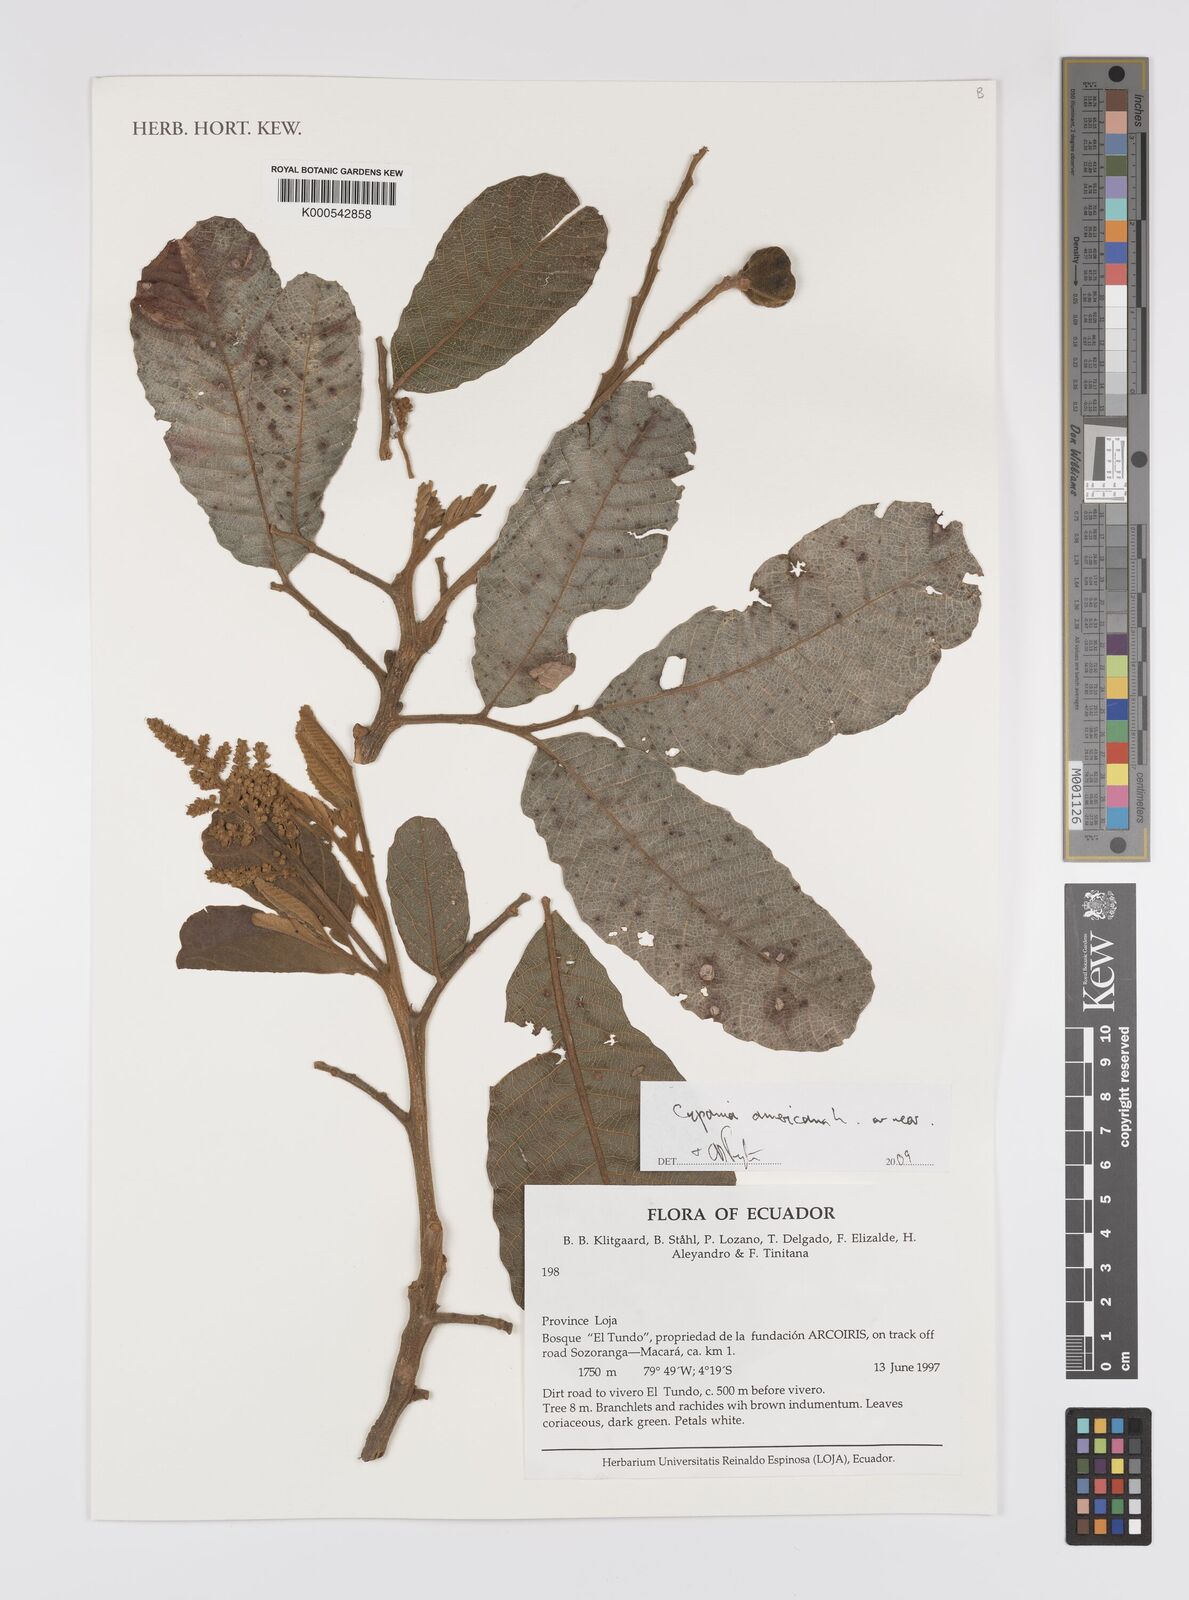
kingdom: Plantae
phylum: Tracheophyta
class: Magnoliopsida
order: Sapindales
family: Sapindaceae
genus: Cupania
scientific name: Cupania americana
